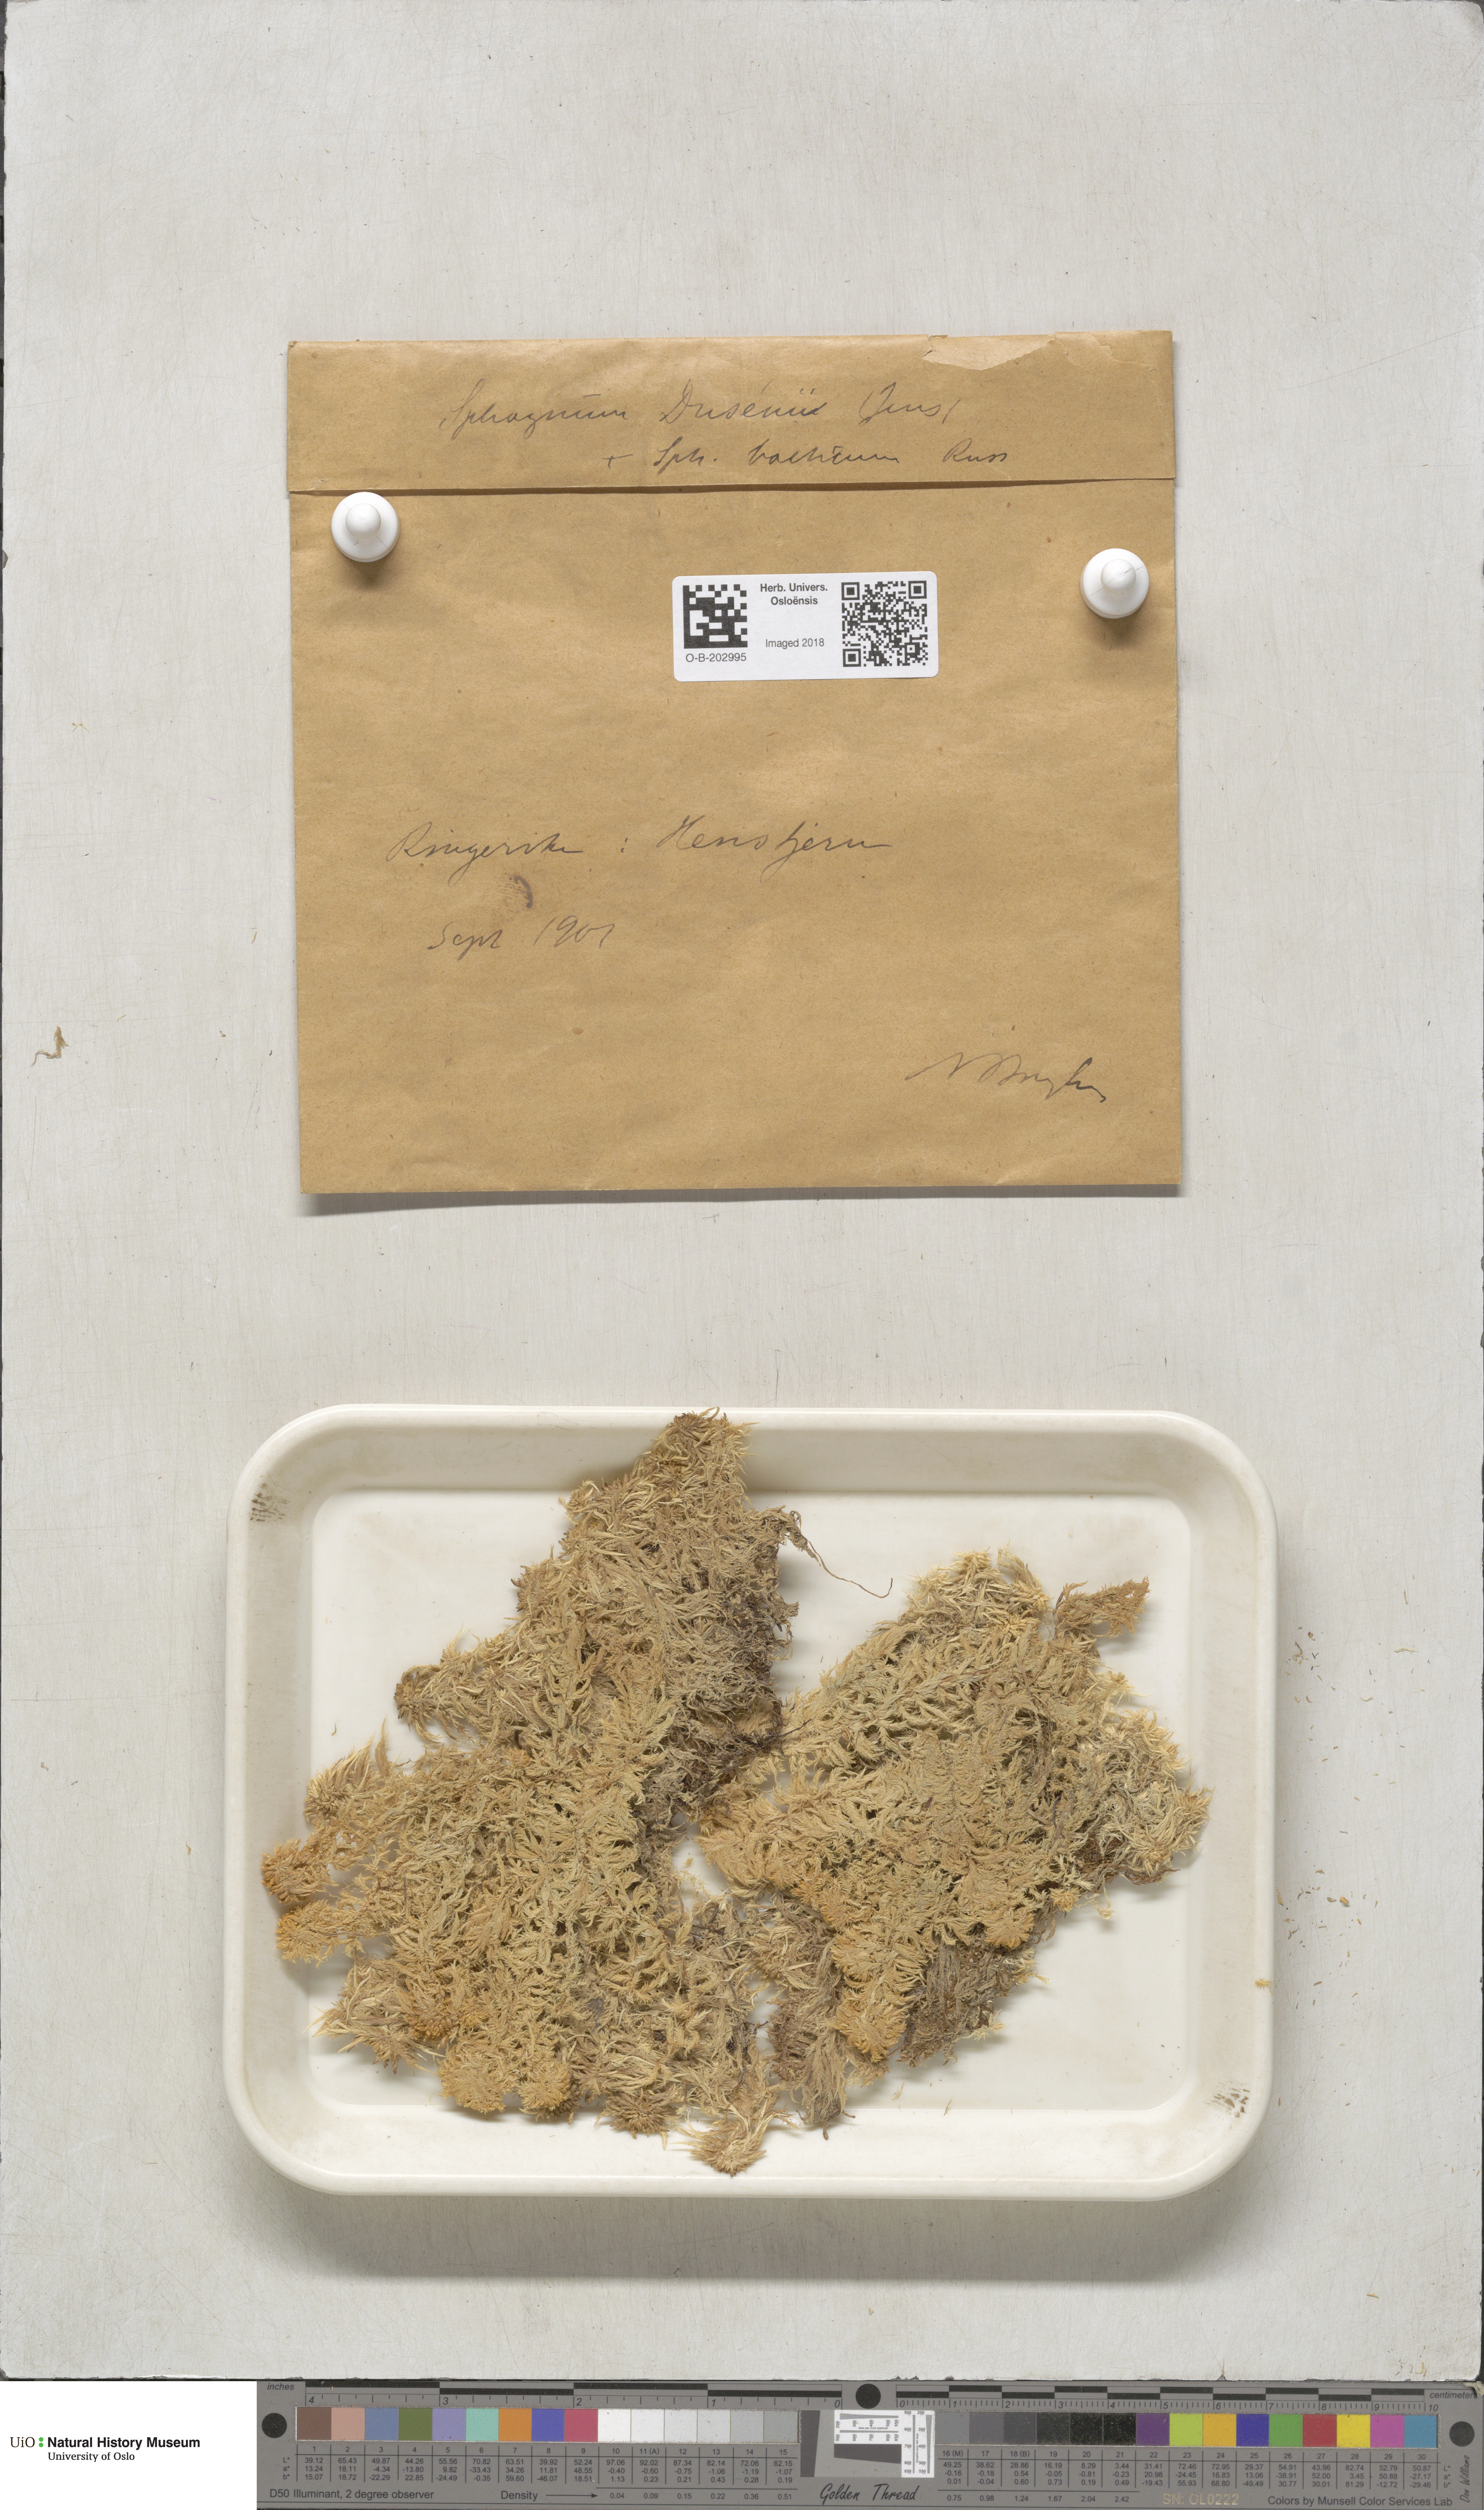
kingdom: Plantae
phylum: Bryophyta
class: Sphagnopsida
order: Sphagnales
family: Sphagnaceae
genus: Sphagnum
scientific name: Sphagnum majus
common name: Olive bog-moss
